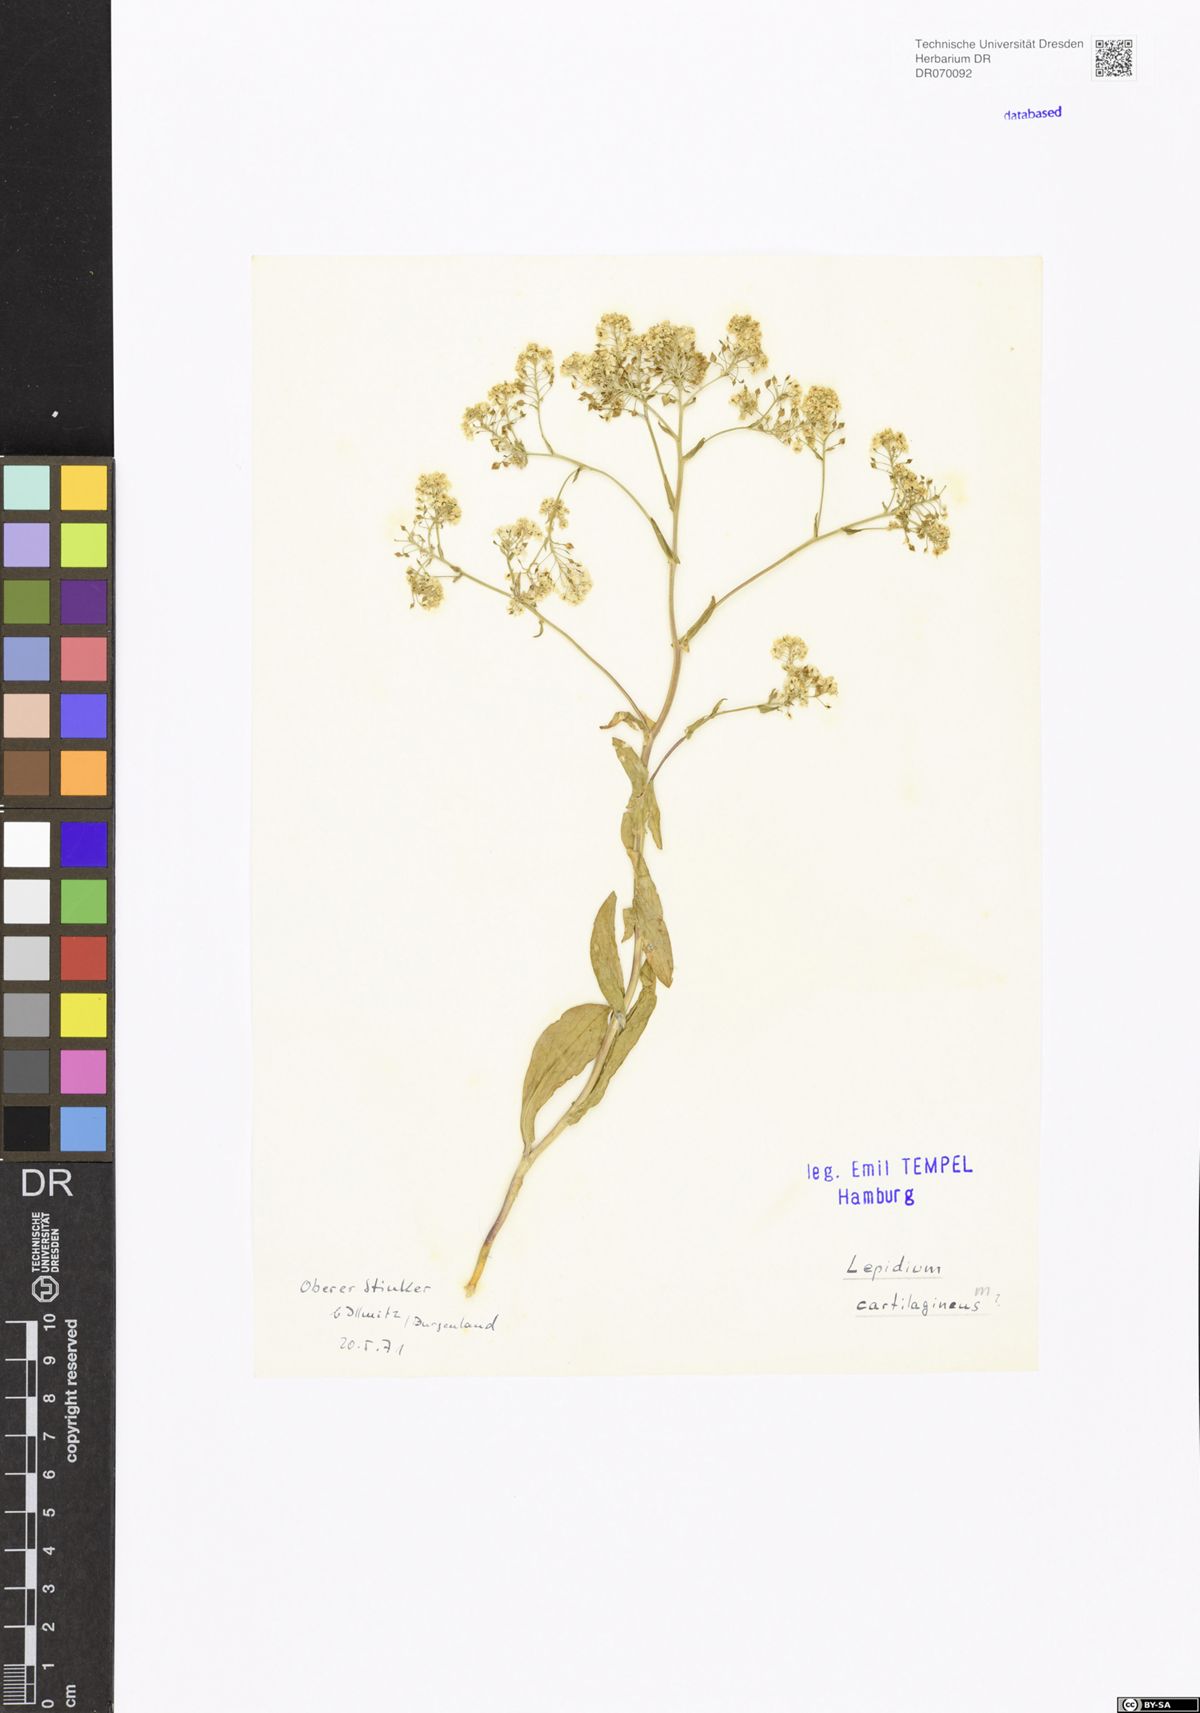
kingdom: Plantae
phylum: Tracheophyta
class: Magnoliopsida
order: Brassicales
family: Brassicaceae
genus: Lepidium
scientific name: Lepidium cartilagineum
